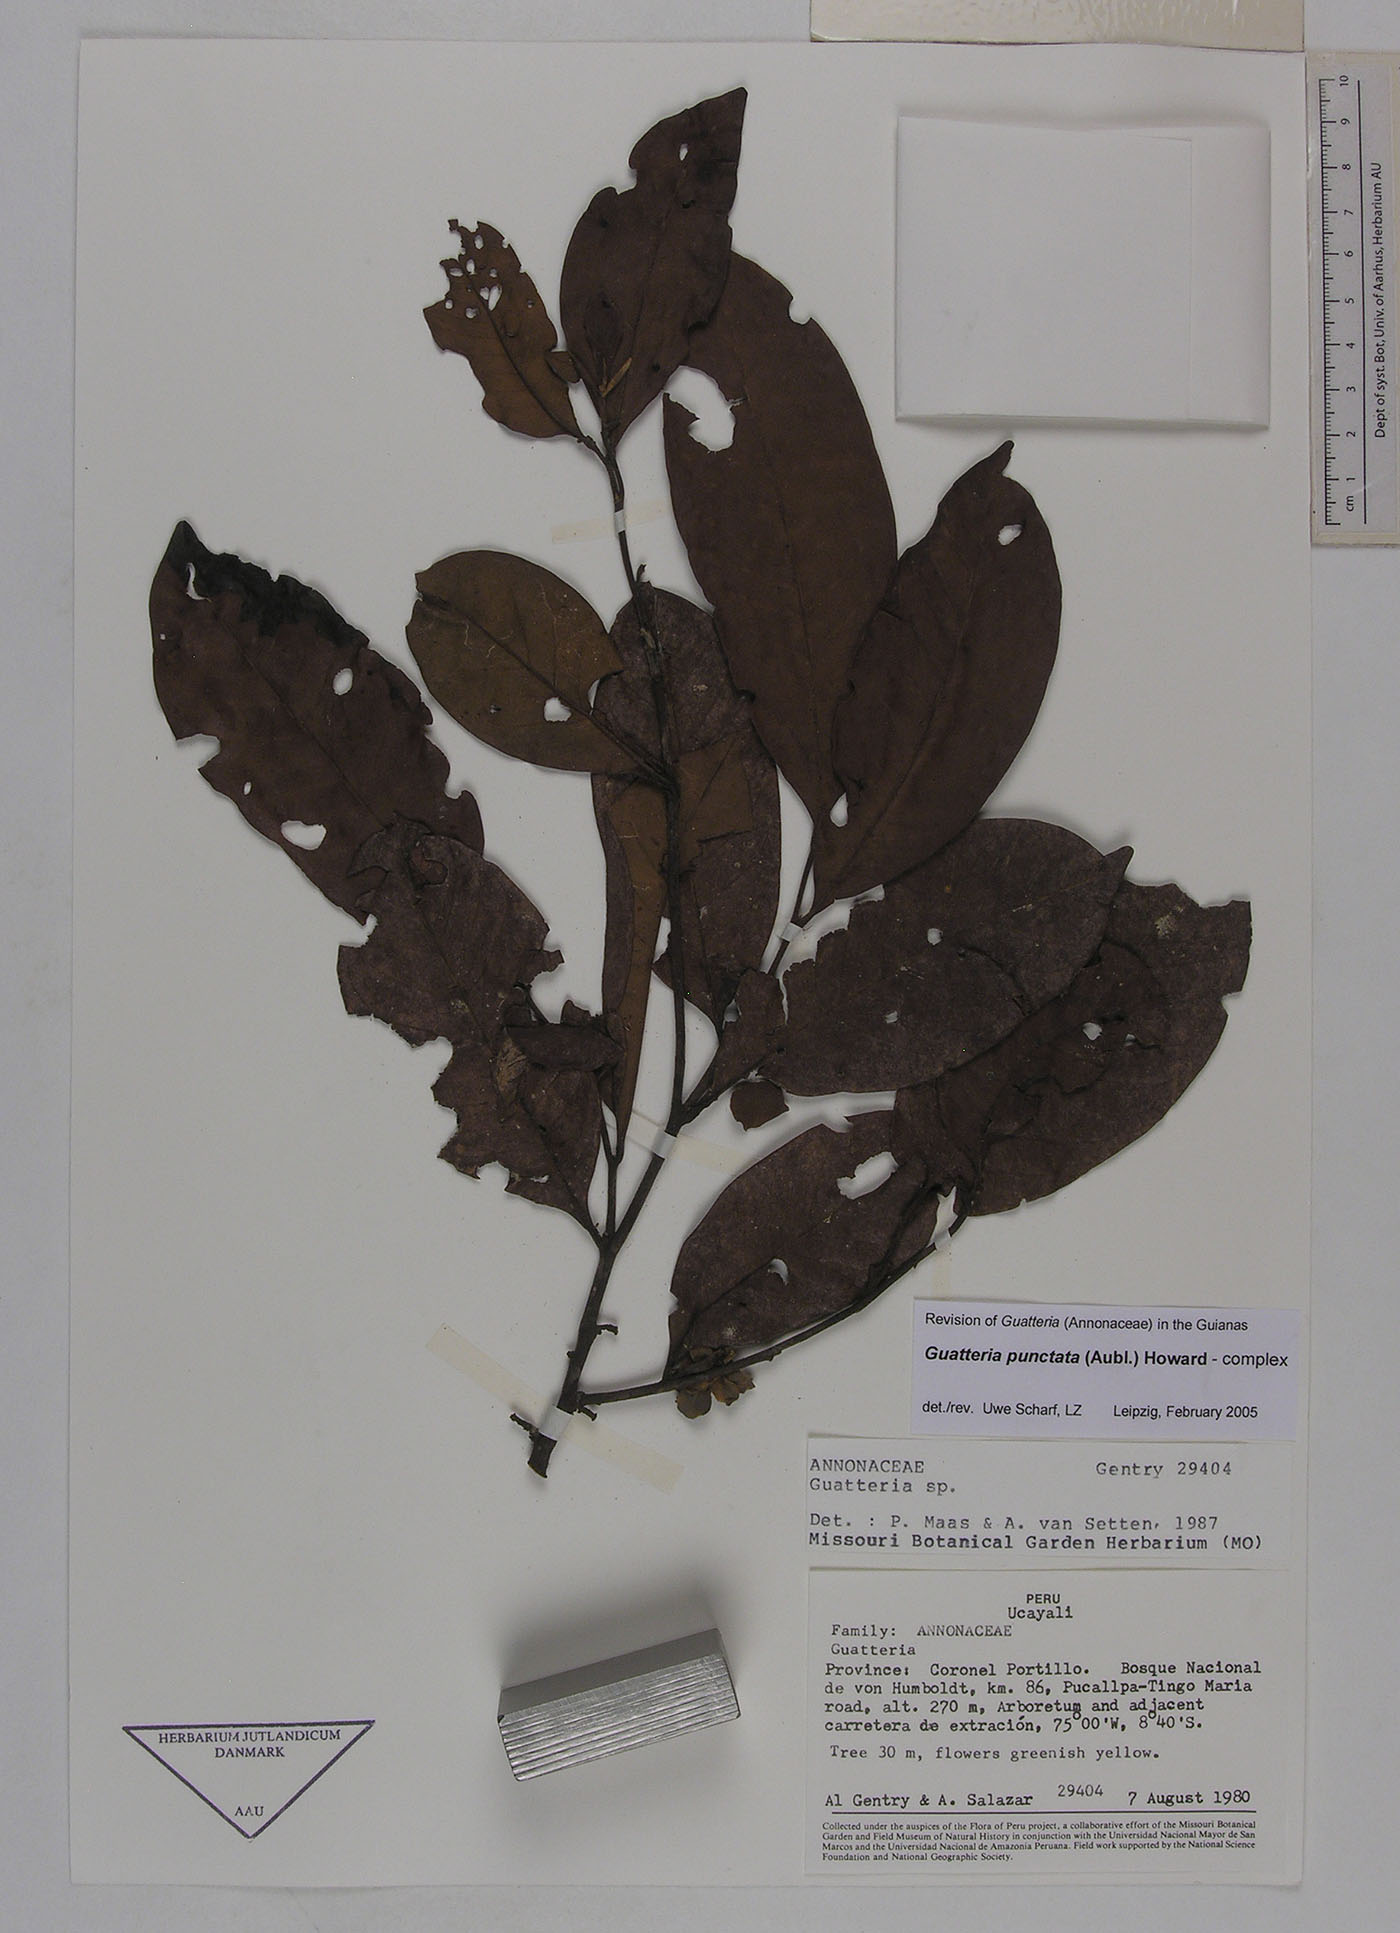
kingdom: Plantae
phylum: Tracheophyta
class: Magnoliopsida
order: Magnoliales
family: Annonaceae
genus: Guatteria
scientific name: Guatteria punctata
